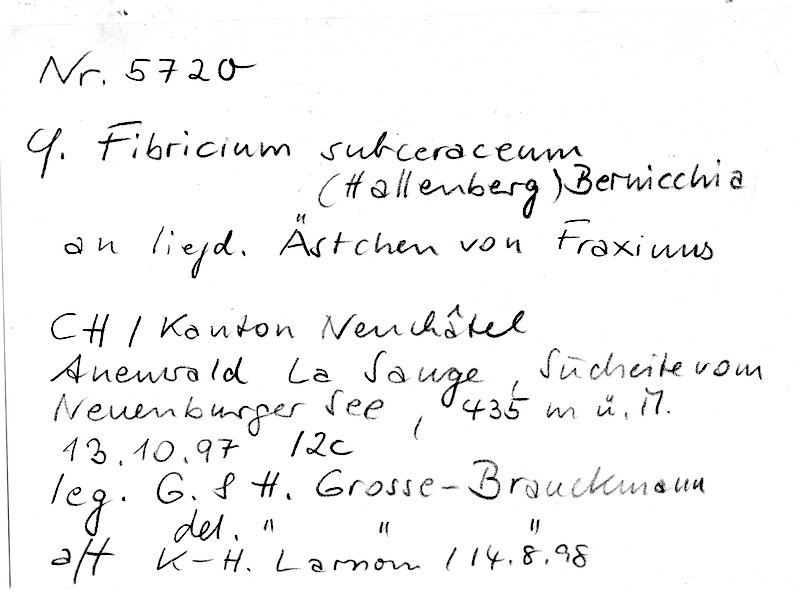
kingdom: Plantae
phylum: Tracheophyta
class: Magnoliopsida
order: Lamiales
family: Oleaceae
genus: Fraxinus
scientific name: Fraxinus
